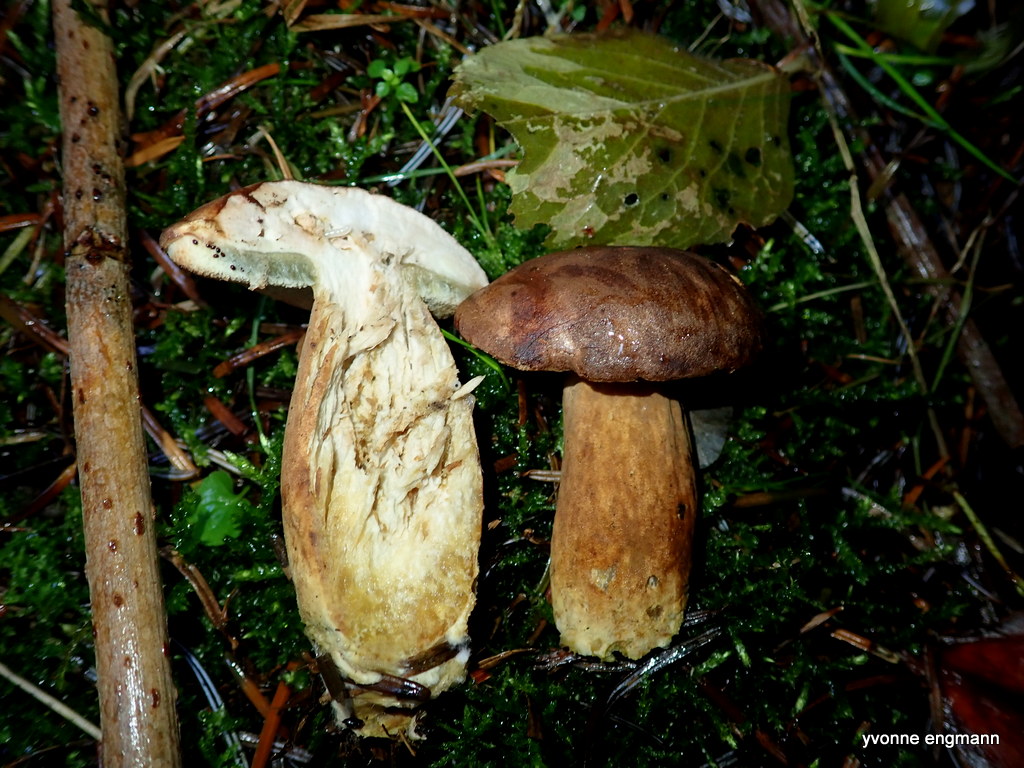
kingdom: Fungi
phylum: Basidiomycota
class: Agaricomycetes
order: Boletales
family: Boletaceae
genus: Imleria
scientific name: Imleria badia
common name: brunstokket rørhat
